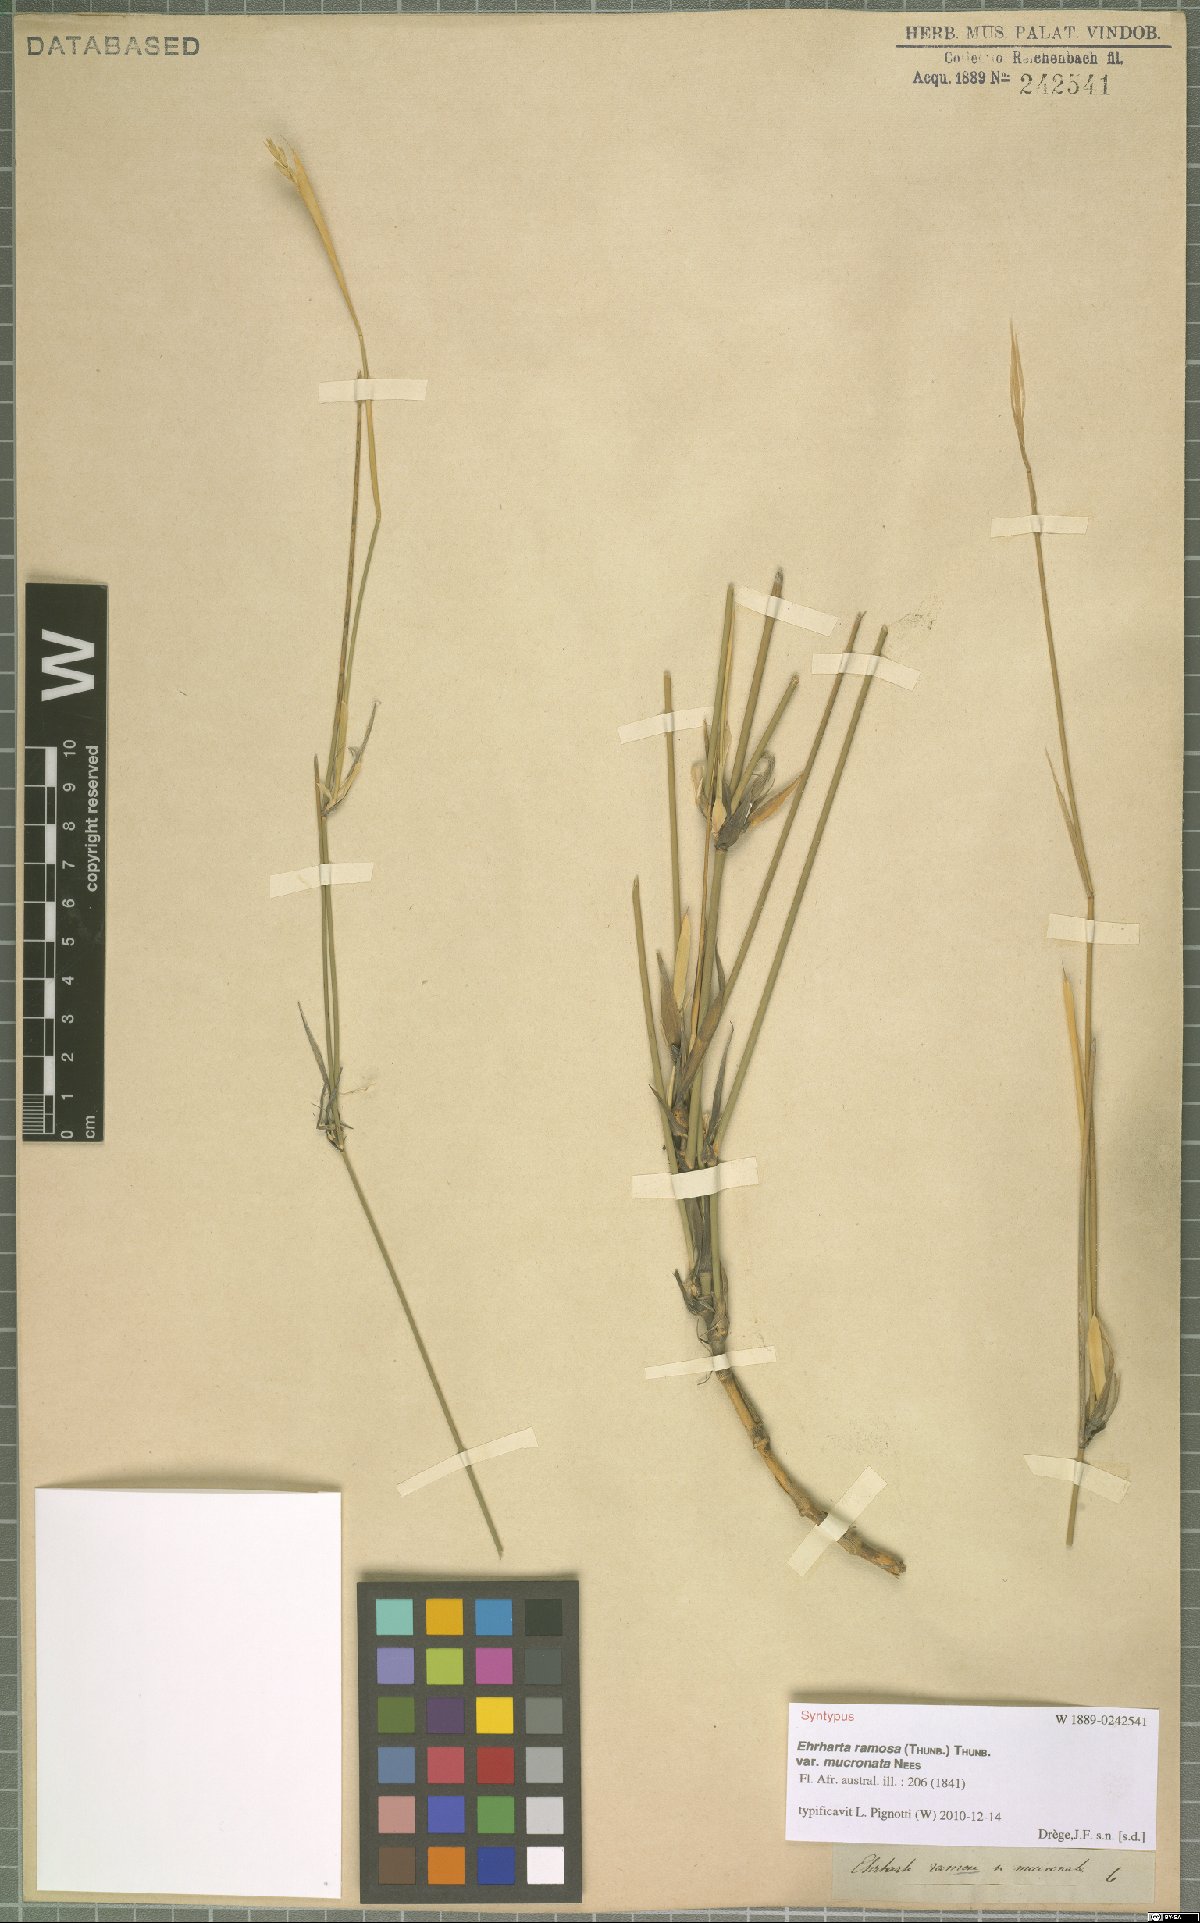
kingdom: Plantae
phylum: Tracheophyta
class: Liliopsida
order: Poales
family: Poaceae
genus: Ehrharta
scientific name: Ehrharta ramosa
